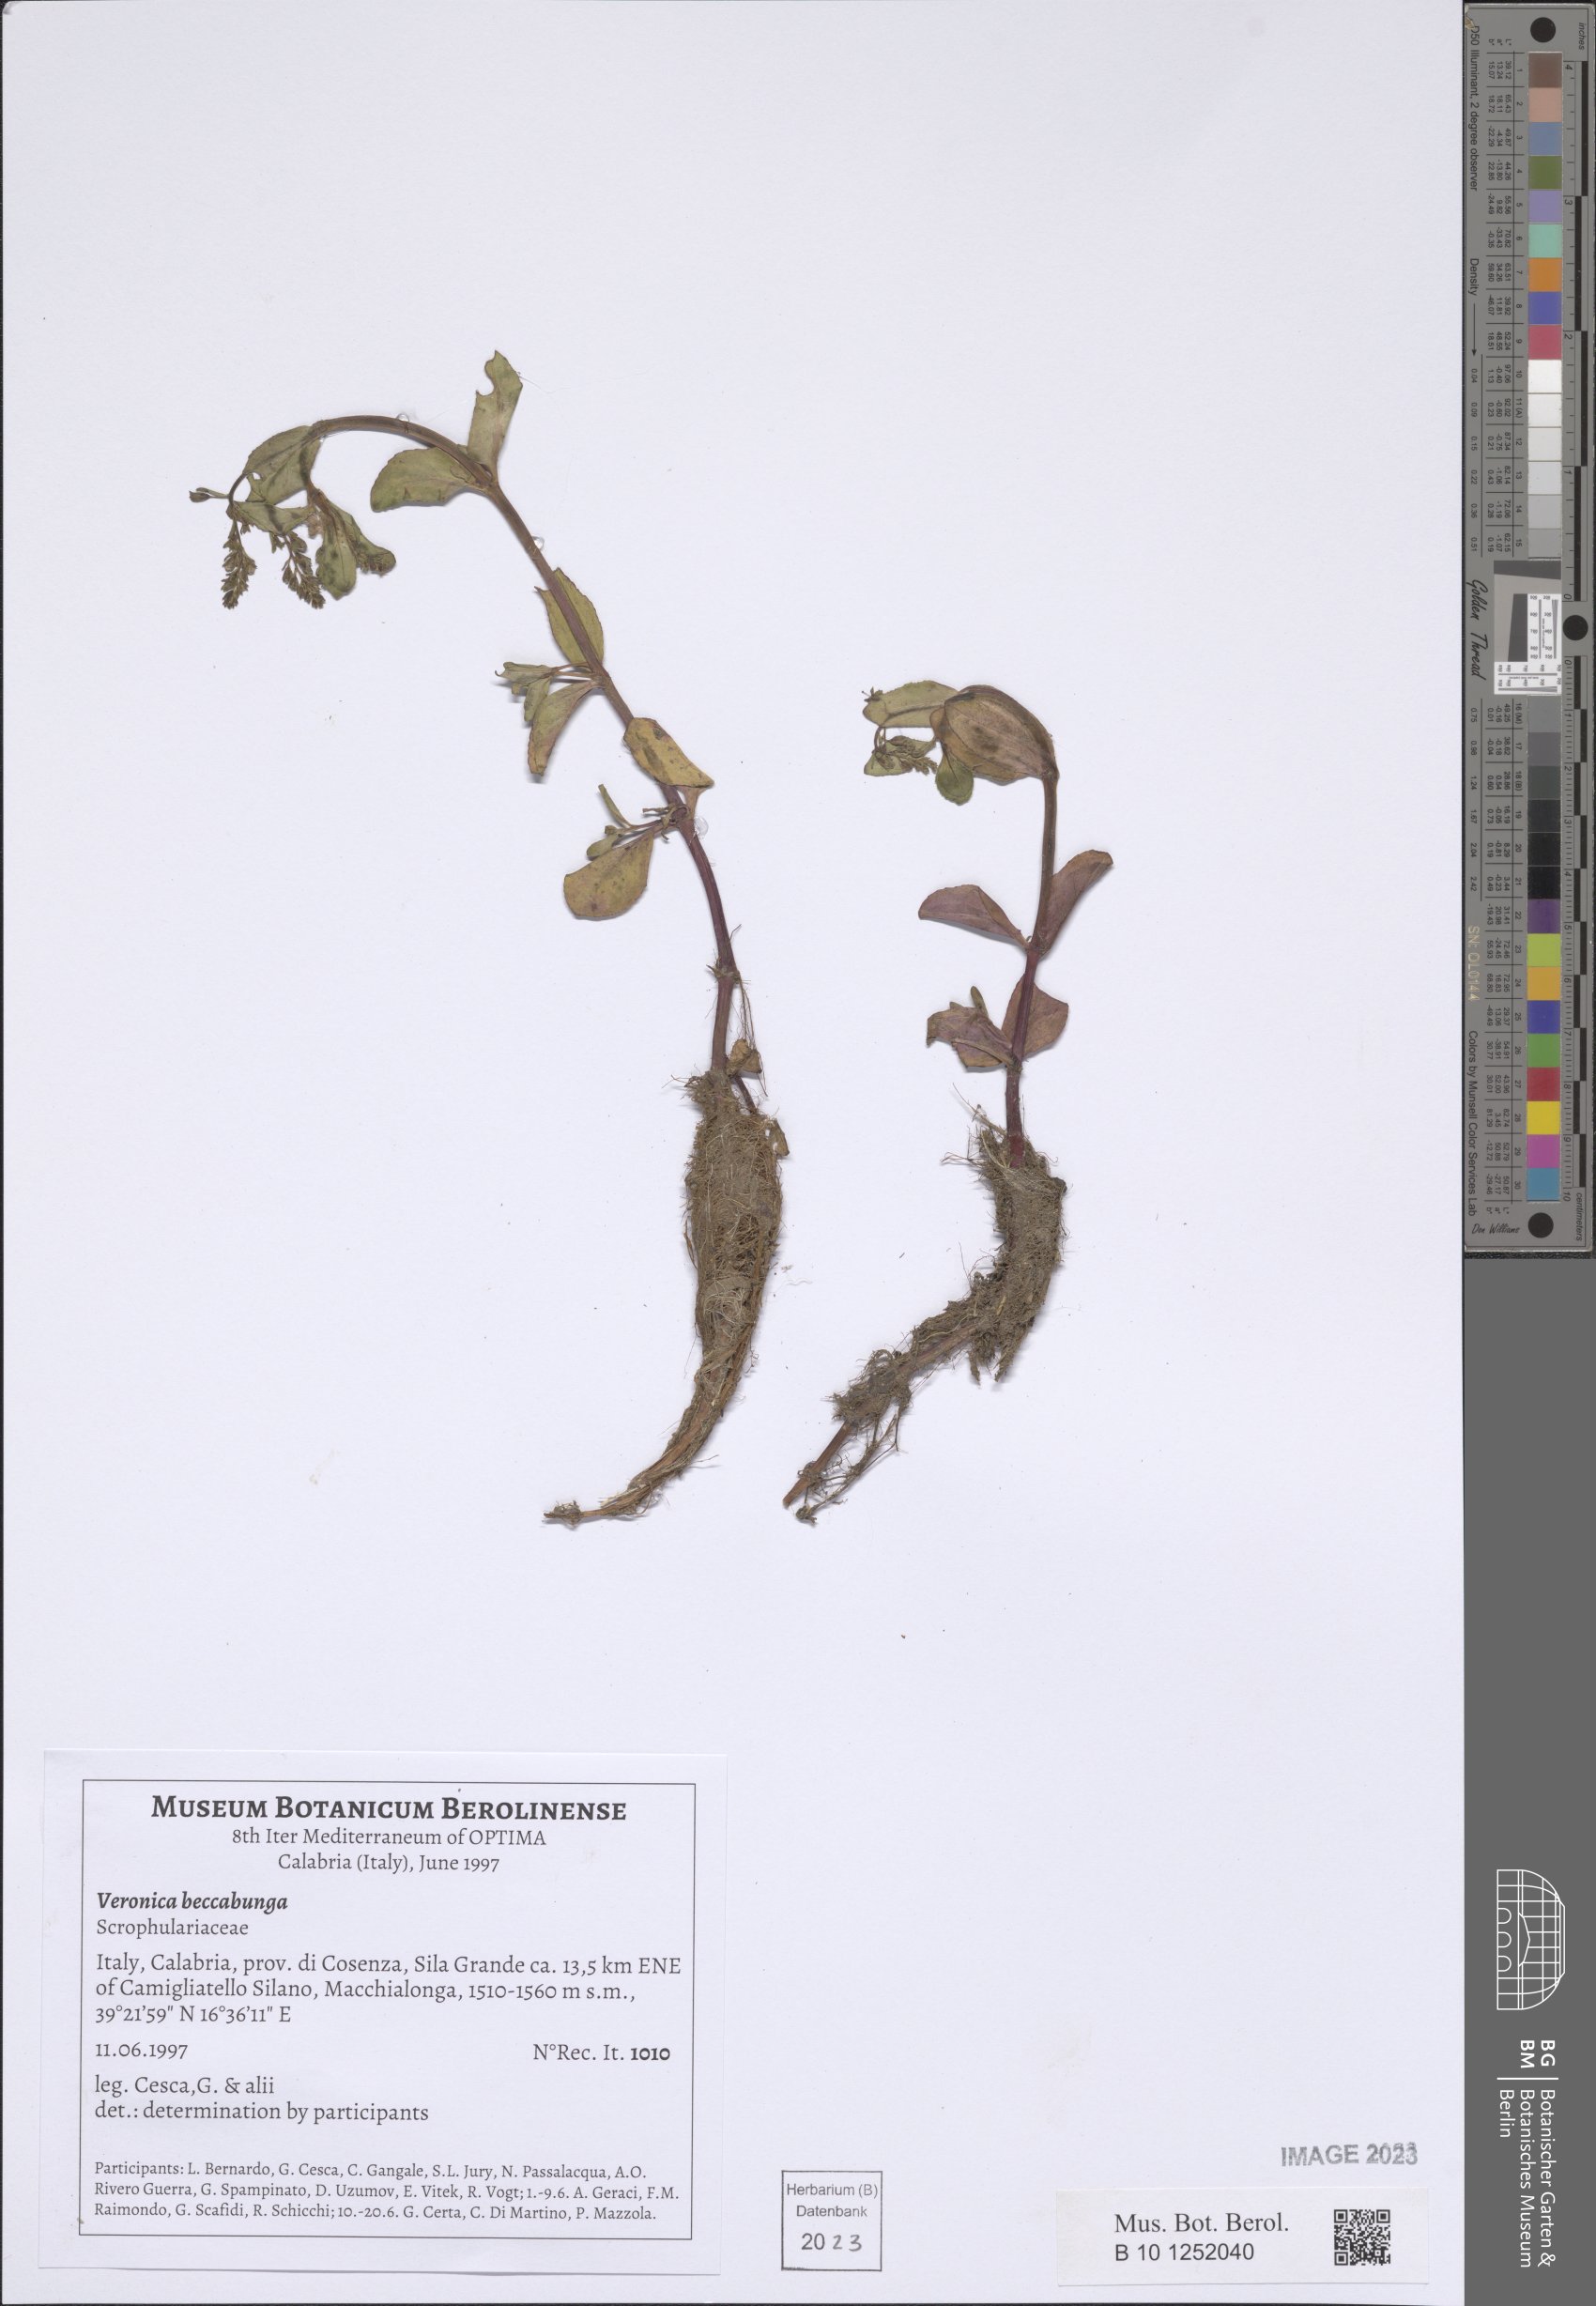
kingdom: Plantae
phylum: Tracheophyta
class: Magnoliopsida
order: Lamiales
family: Plantaginaceae
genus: Veronica
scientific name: Veronica beccabunga
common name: Brooklime
